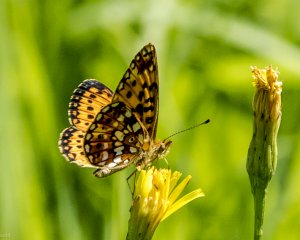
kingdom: Animalia
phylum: Arthropoda
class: Insecta
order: Lepidoptera
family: Nymphalidae
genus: Boloria
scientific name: Boloria selene
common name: Silver-bordered Fritillary
